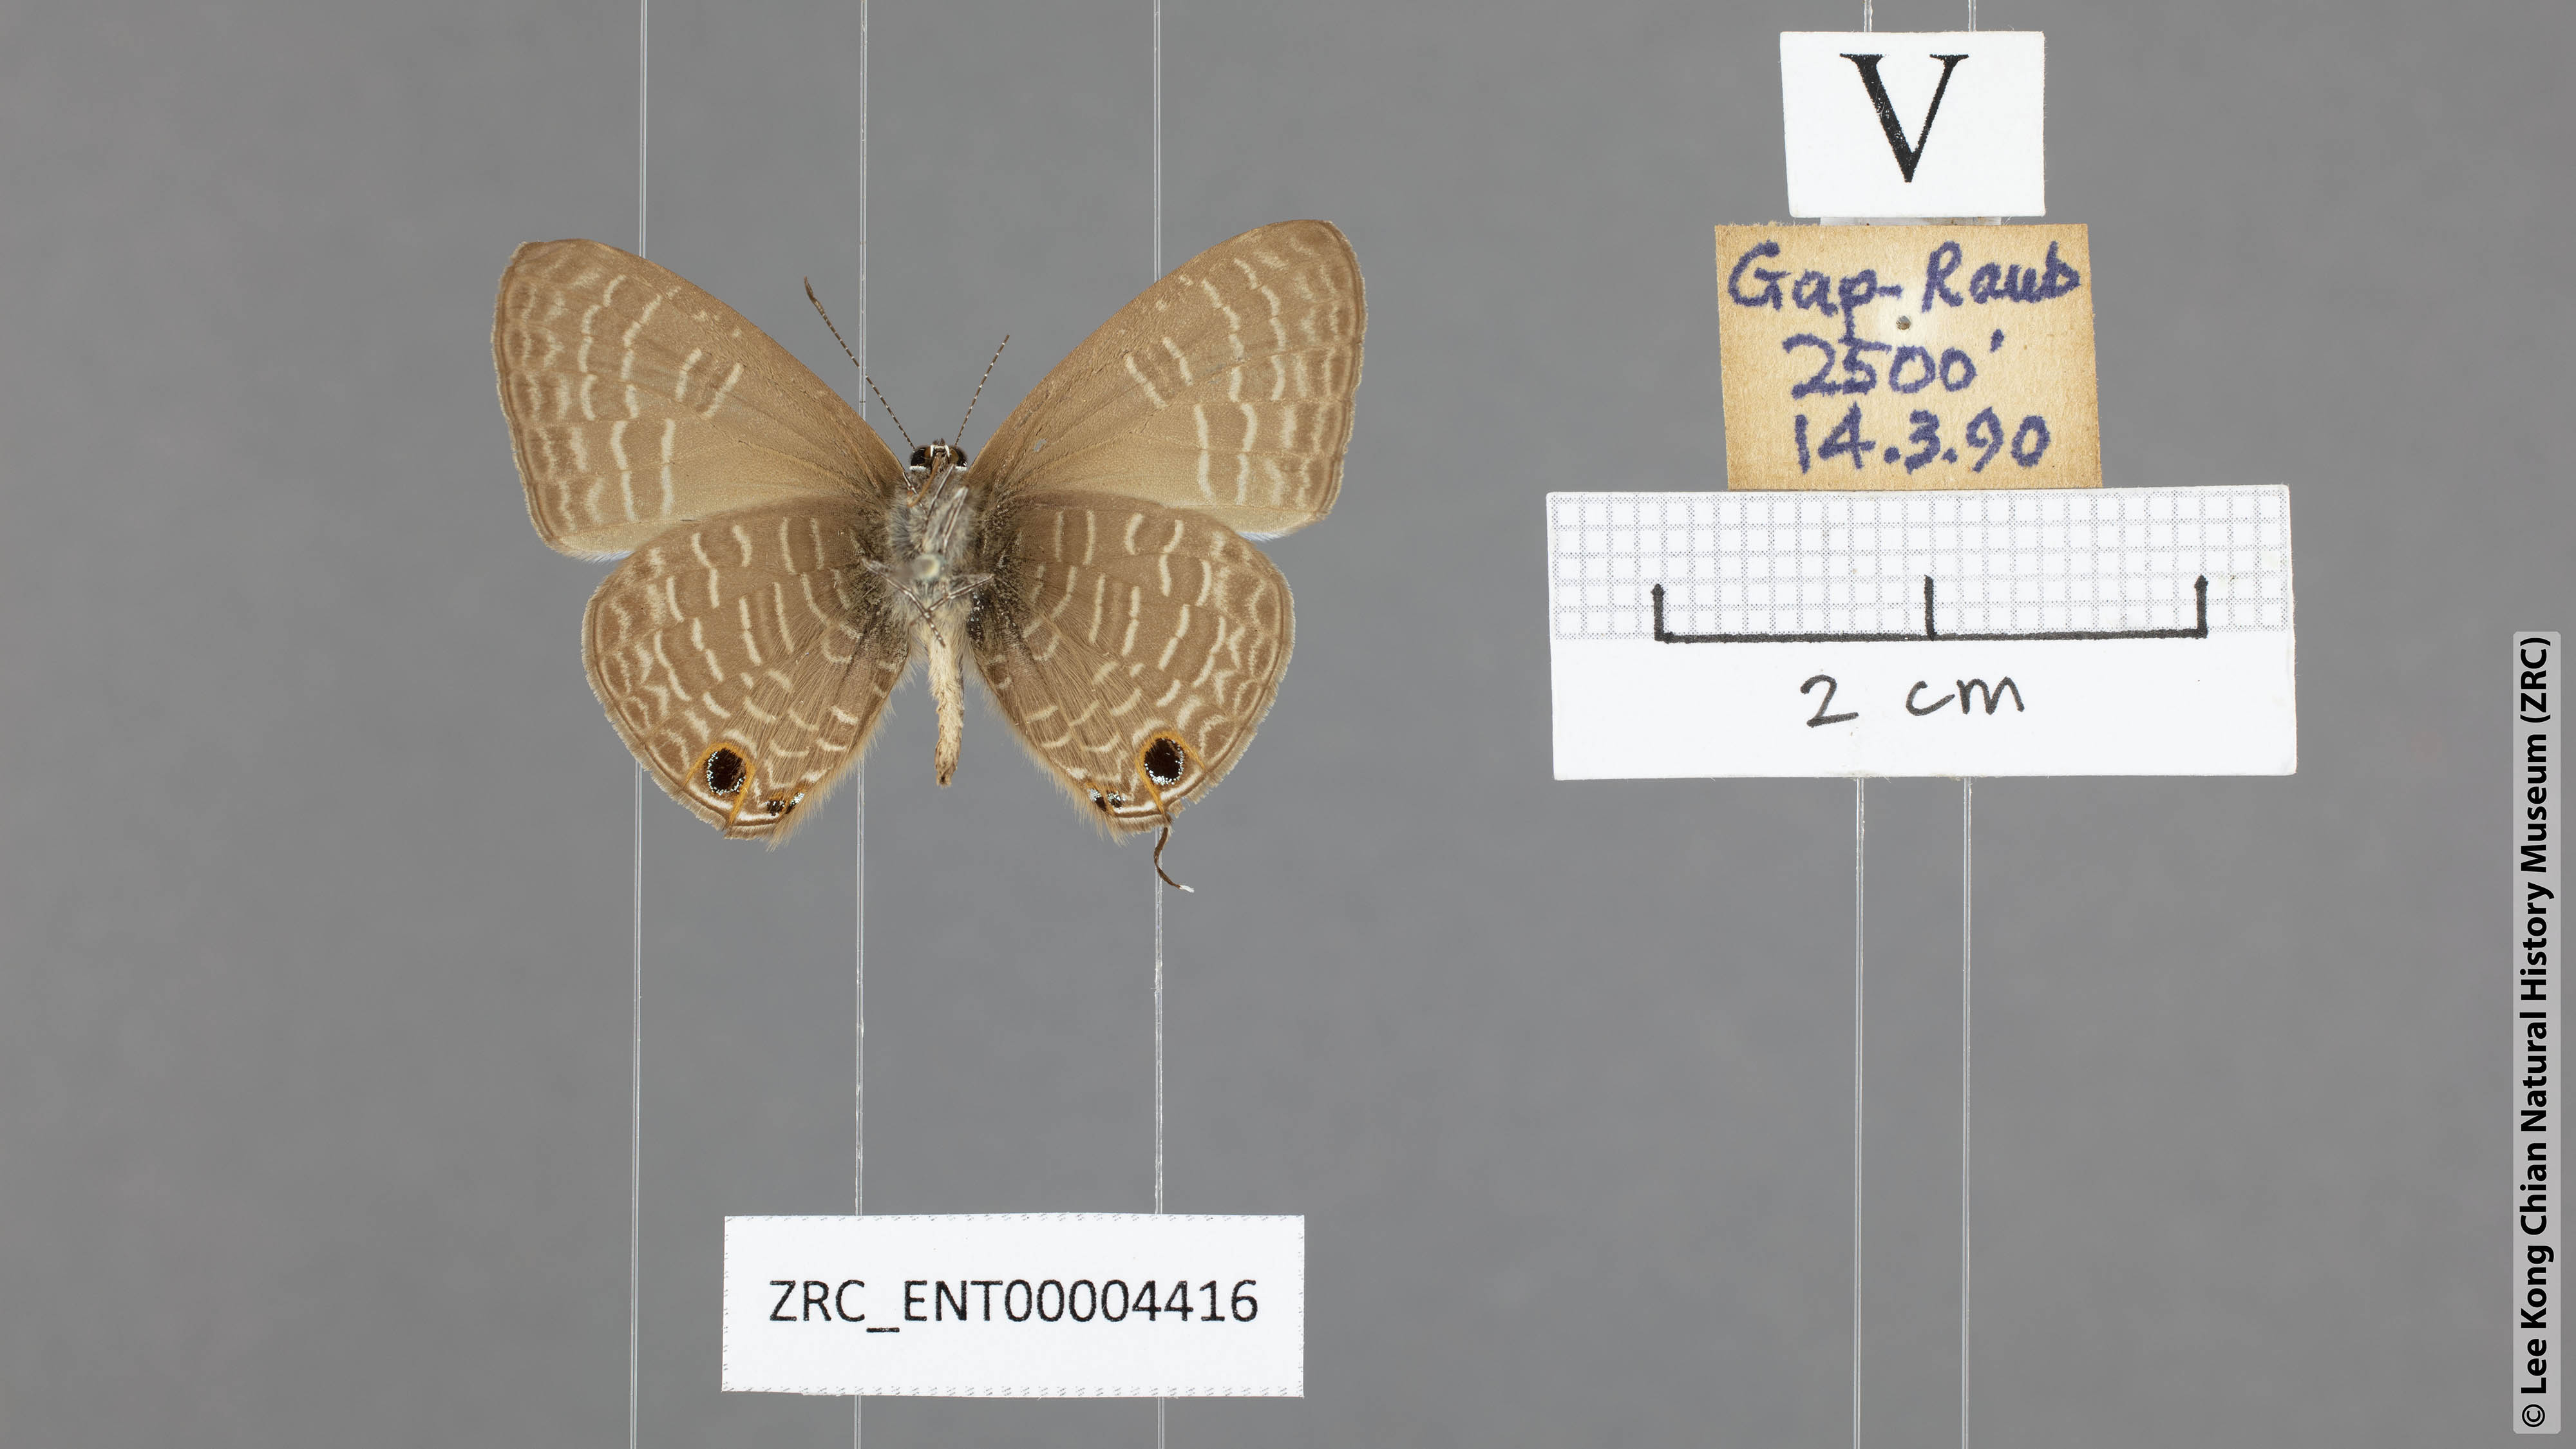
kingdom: Animalia
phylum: Arthropoda
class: Insecta
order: Lepidoptera
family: Lycaenidae
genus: Nacaduba
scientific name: Nacaduba subperusia
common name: Violet fourline blue
